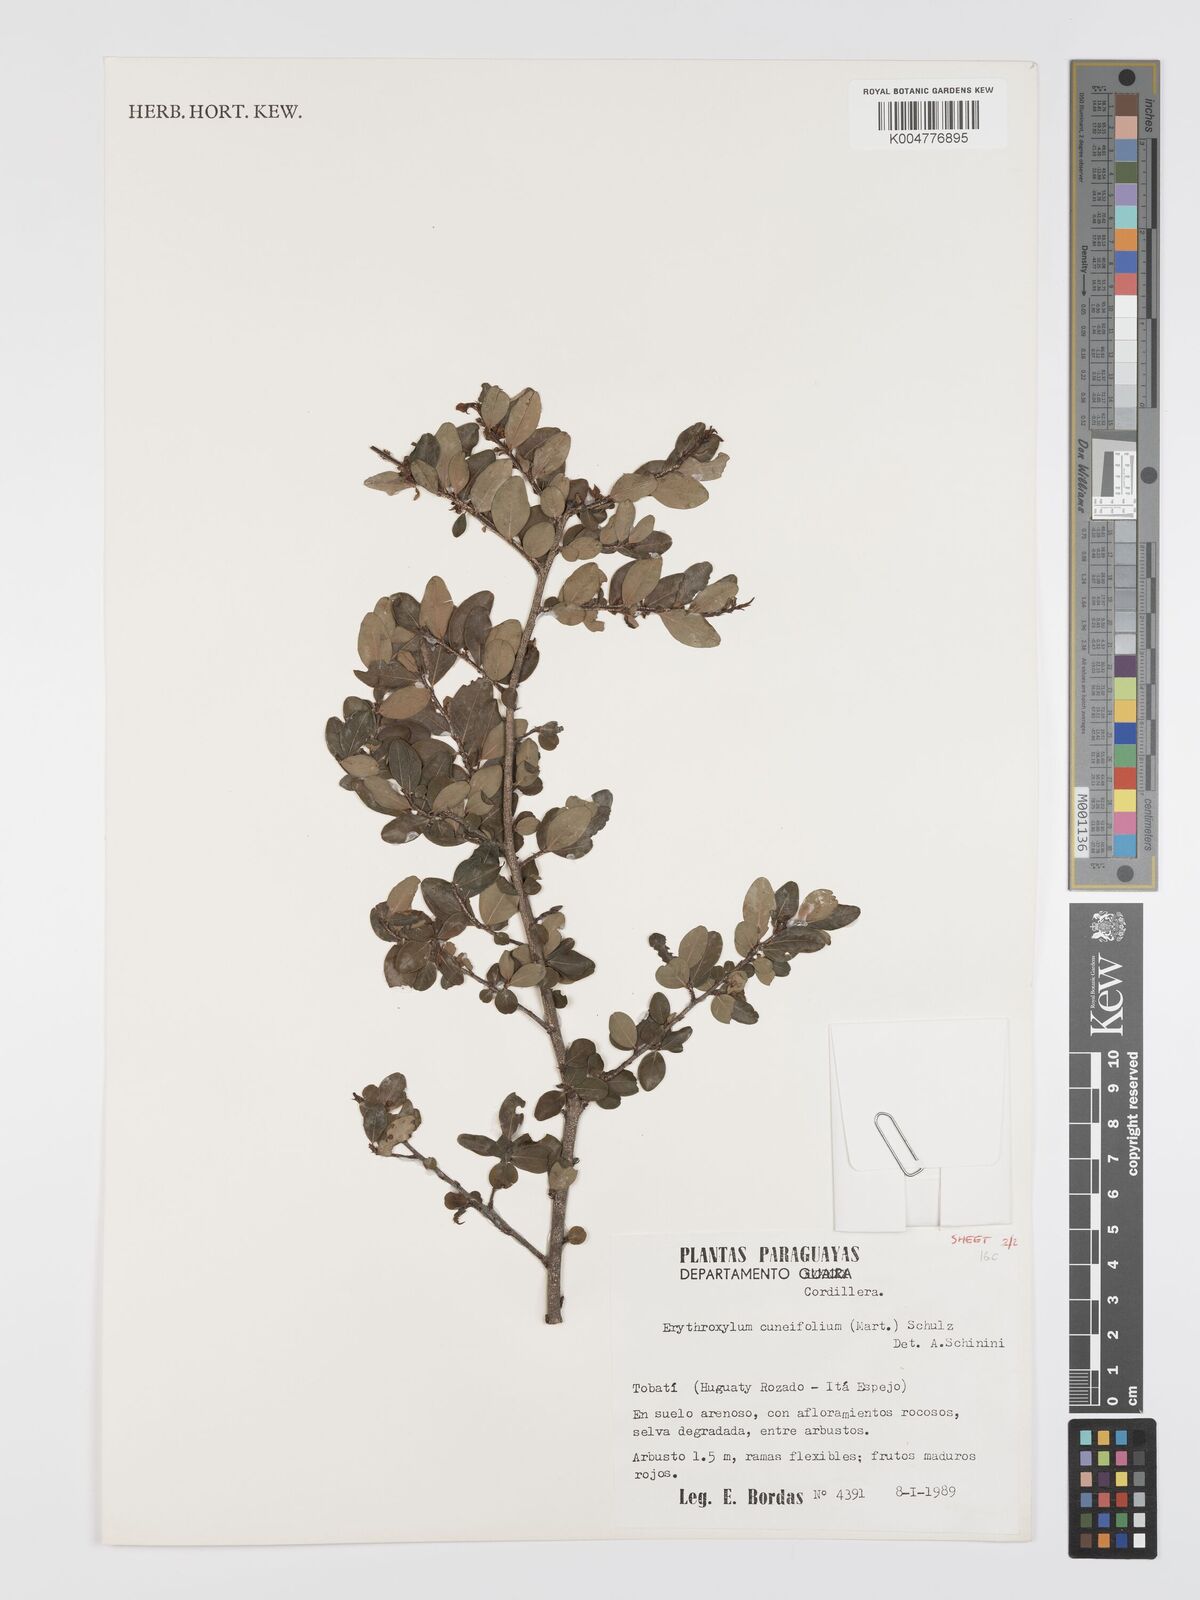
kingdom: Plantae
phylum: Tracheophyta
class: Magnoliopsida
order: Malpighiales
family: Erythroxylaceae
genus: Erythroxylum
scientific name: Erythroxylum cuneifolium
